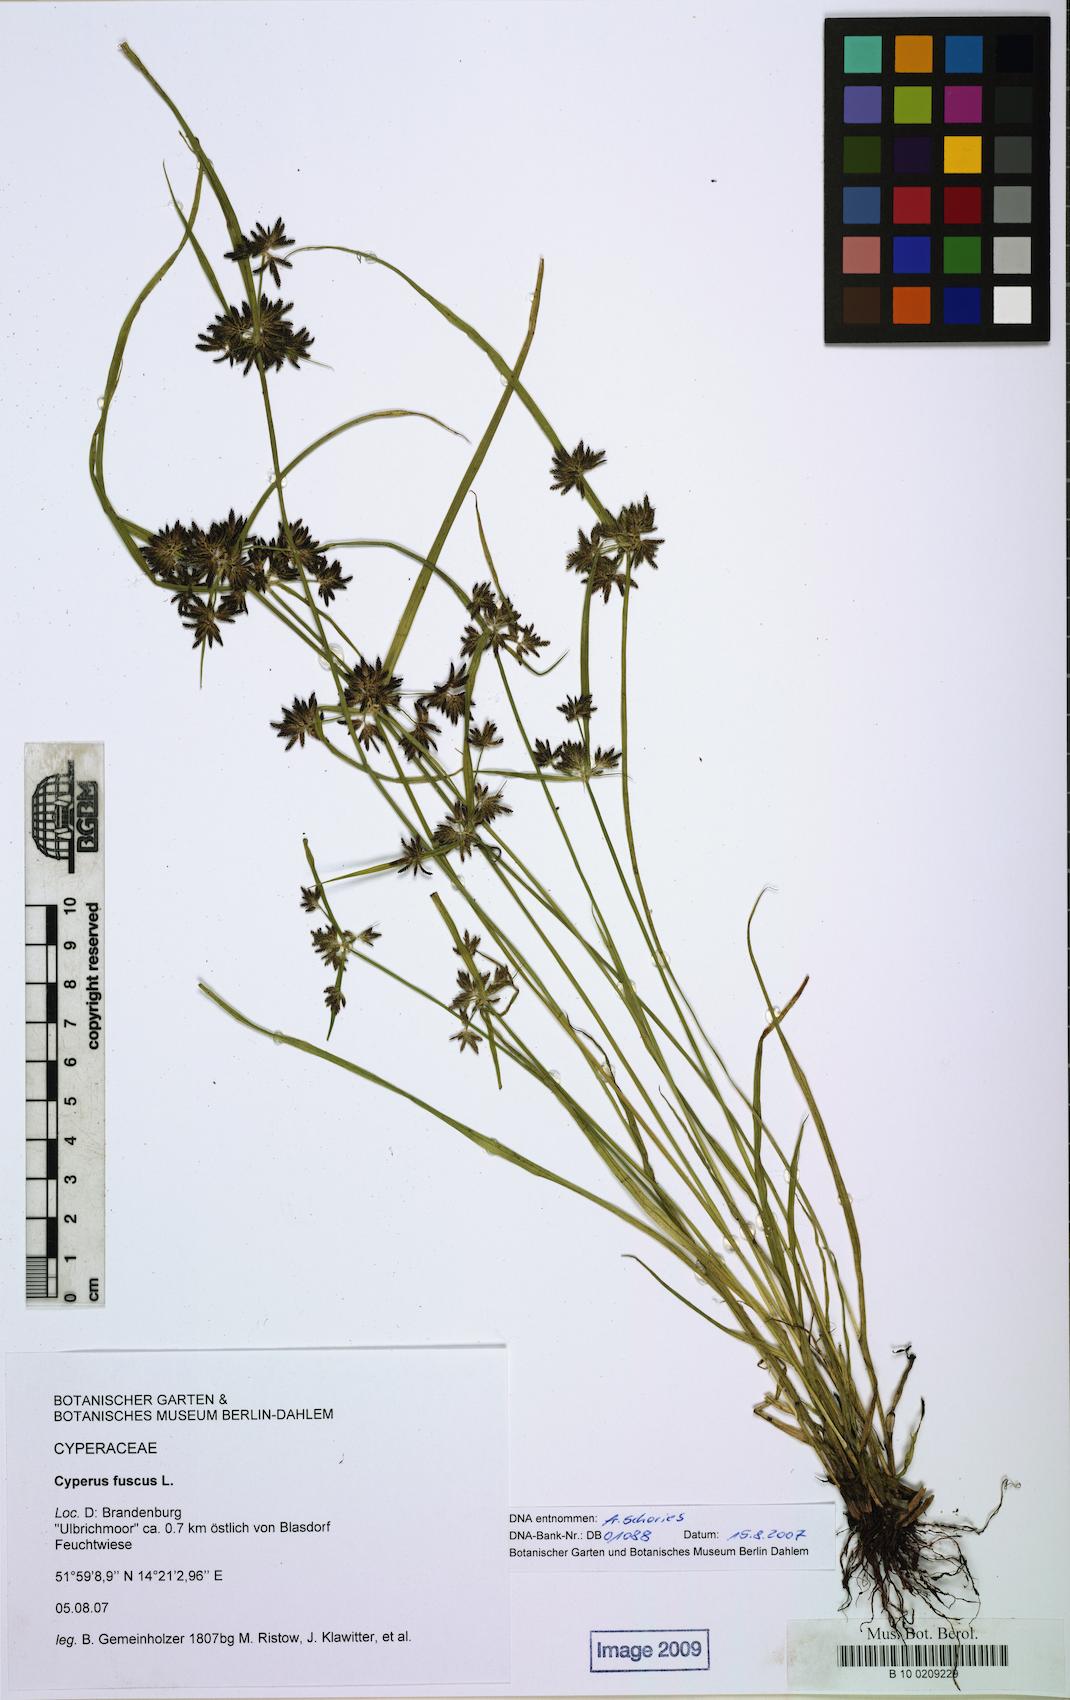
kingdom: Plantae
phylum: Tracheophyta
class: Liliopsida
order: Poales
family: Cyperaceae
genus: Cyperus
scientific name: Cyperus fuscus
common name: Brown galingale
